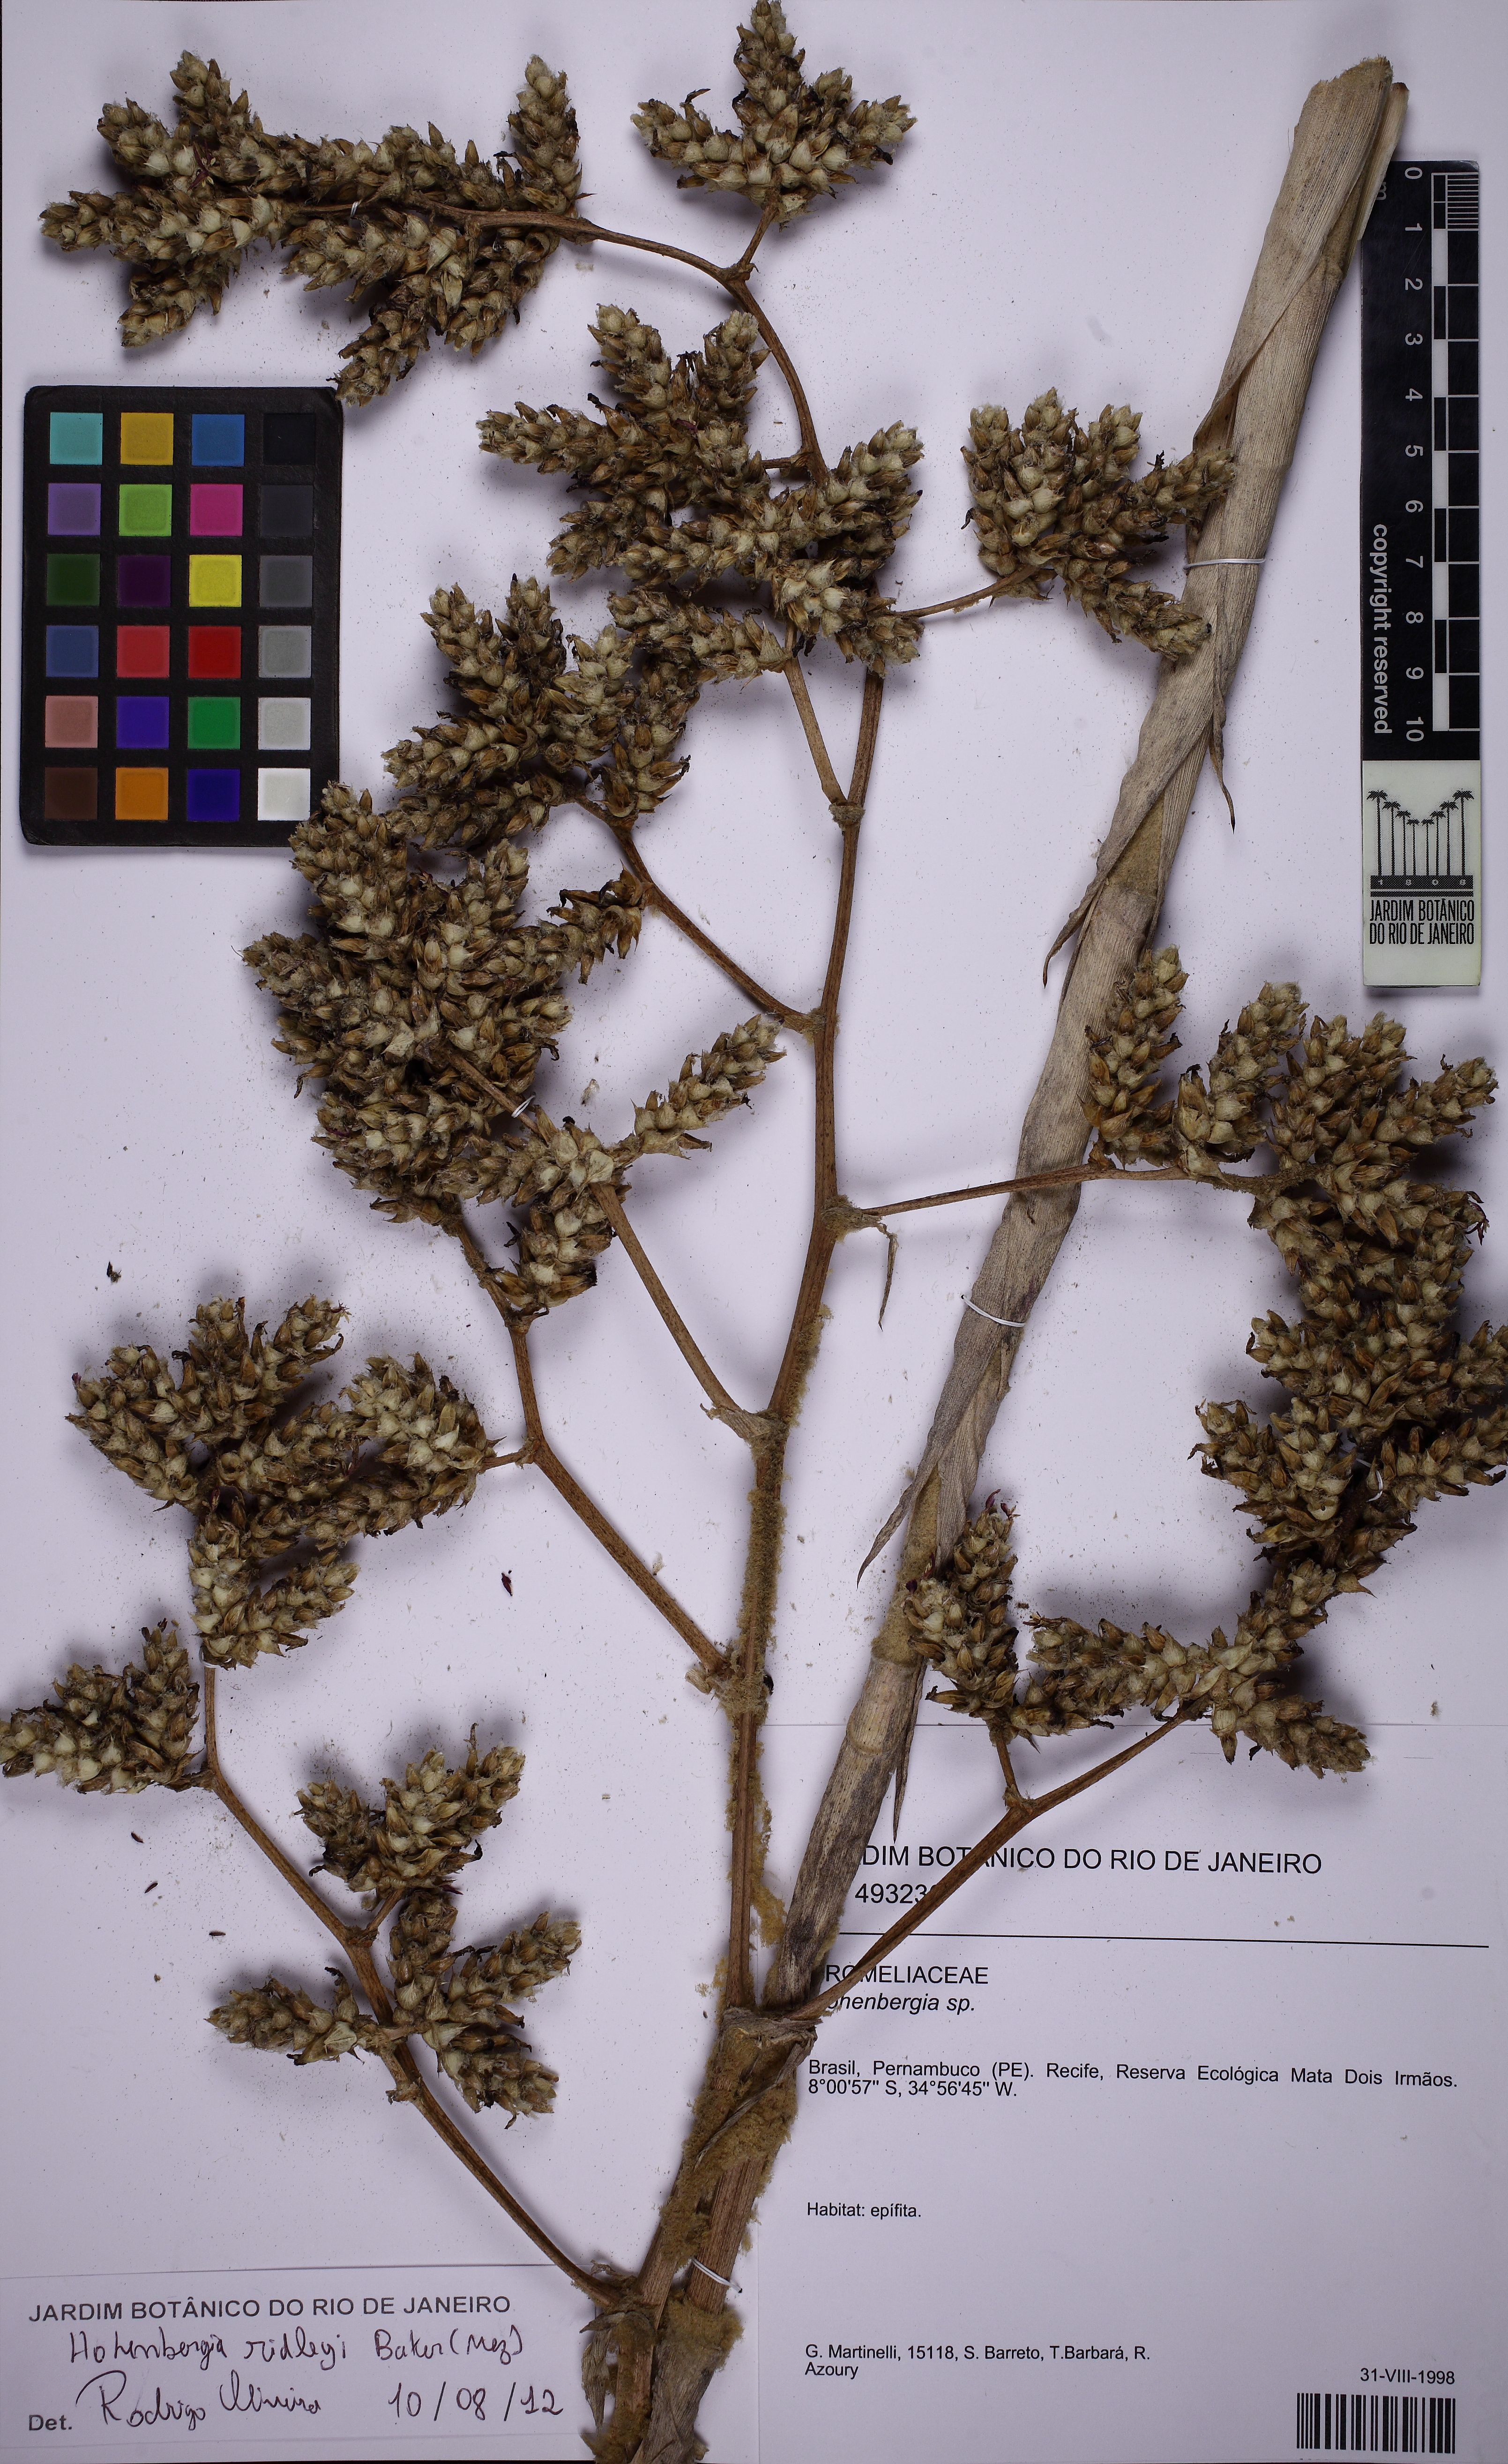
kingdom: Plantae
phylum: Tracheophyta
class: Liliopsida
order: Poales
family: Bromeliaceae
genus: Hohenbergia
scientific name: Hohenbergia ridleyi
